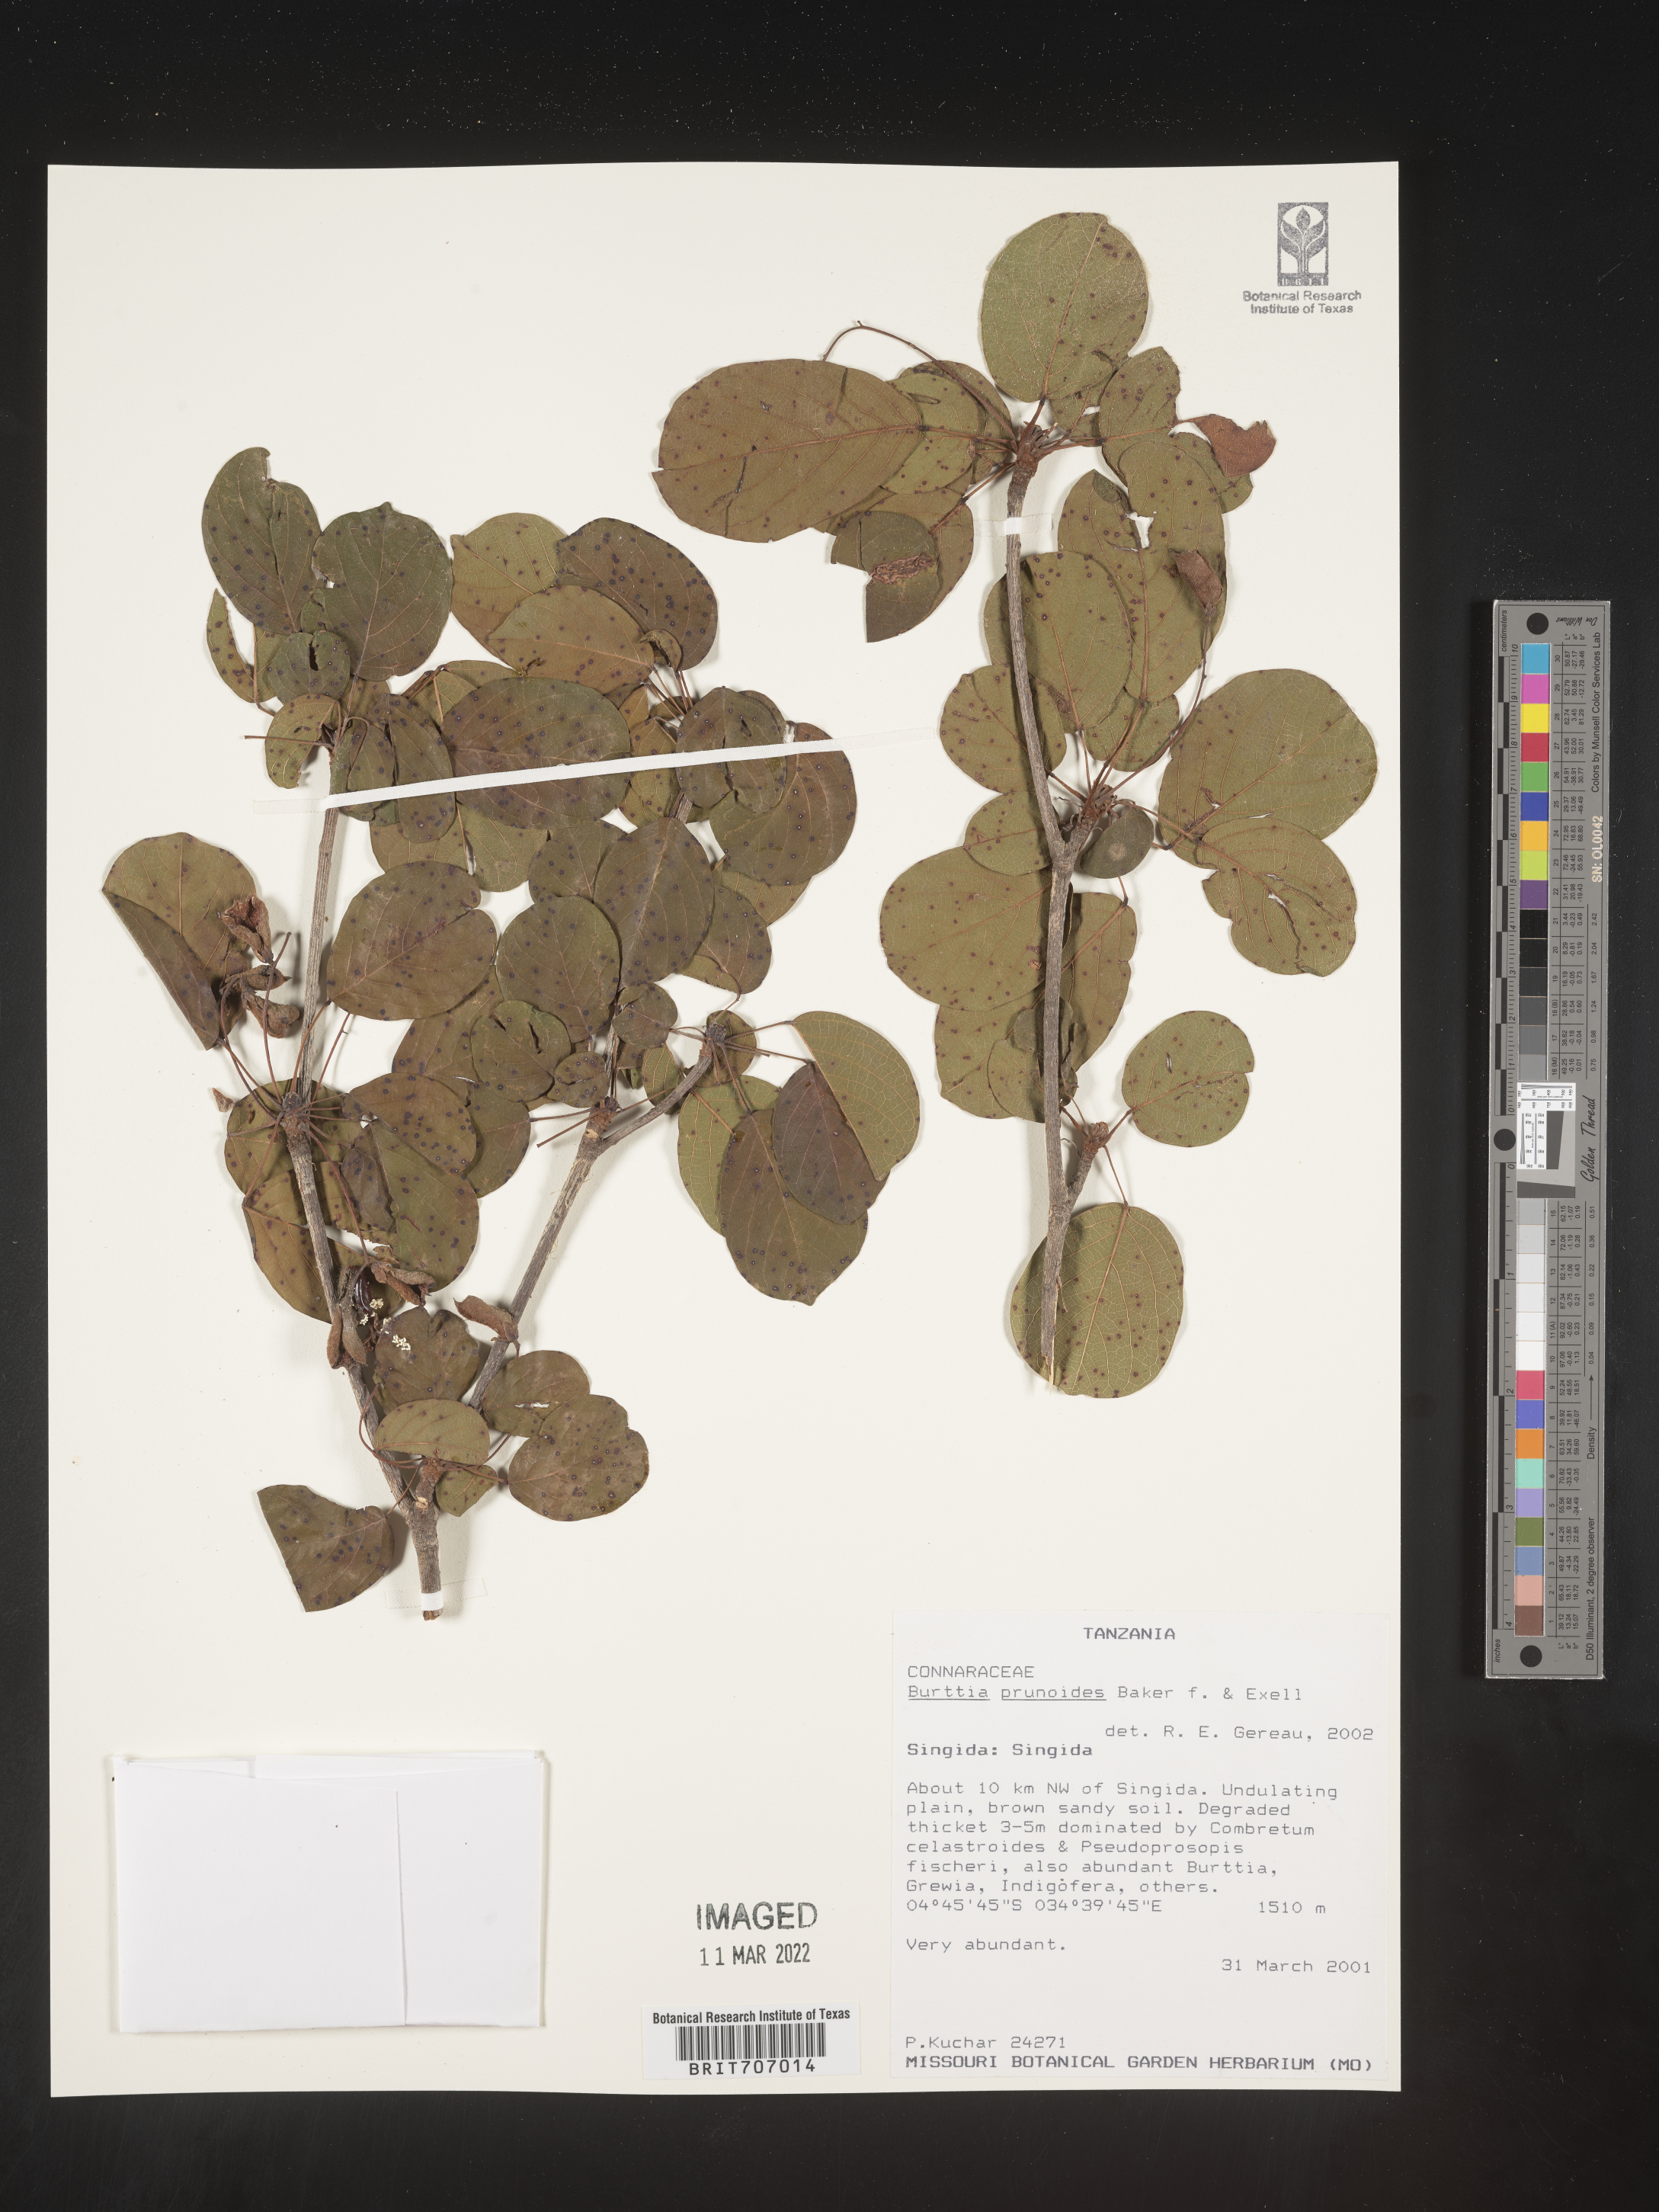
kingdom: Plantae
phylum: Tracheophyta
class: Magnoliopsida
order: Oxalidales
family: Connaraceae
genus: Burttia
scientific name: Burttia
